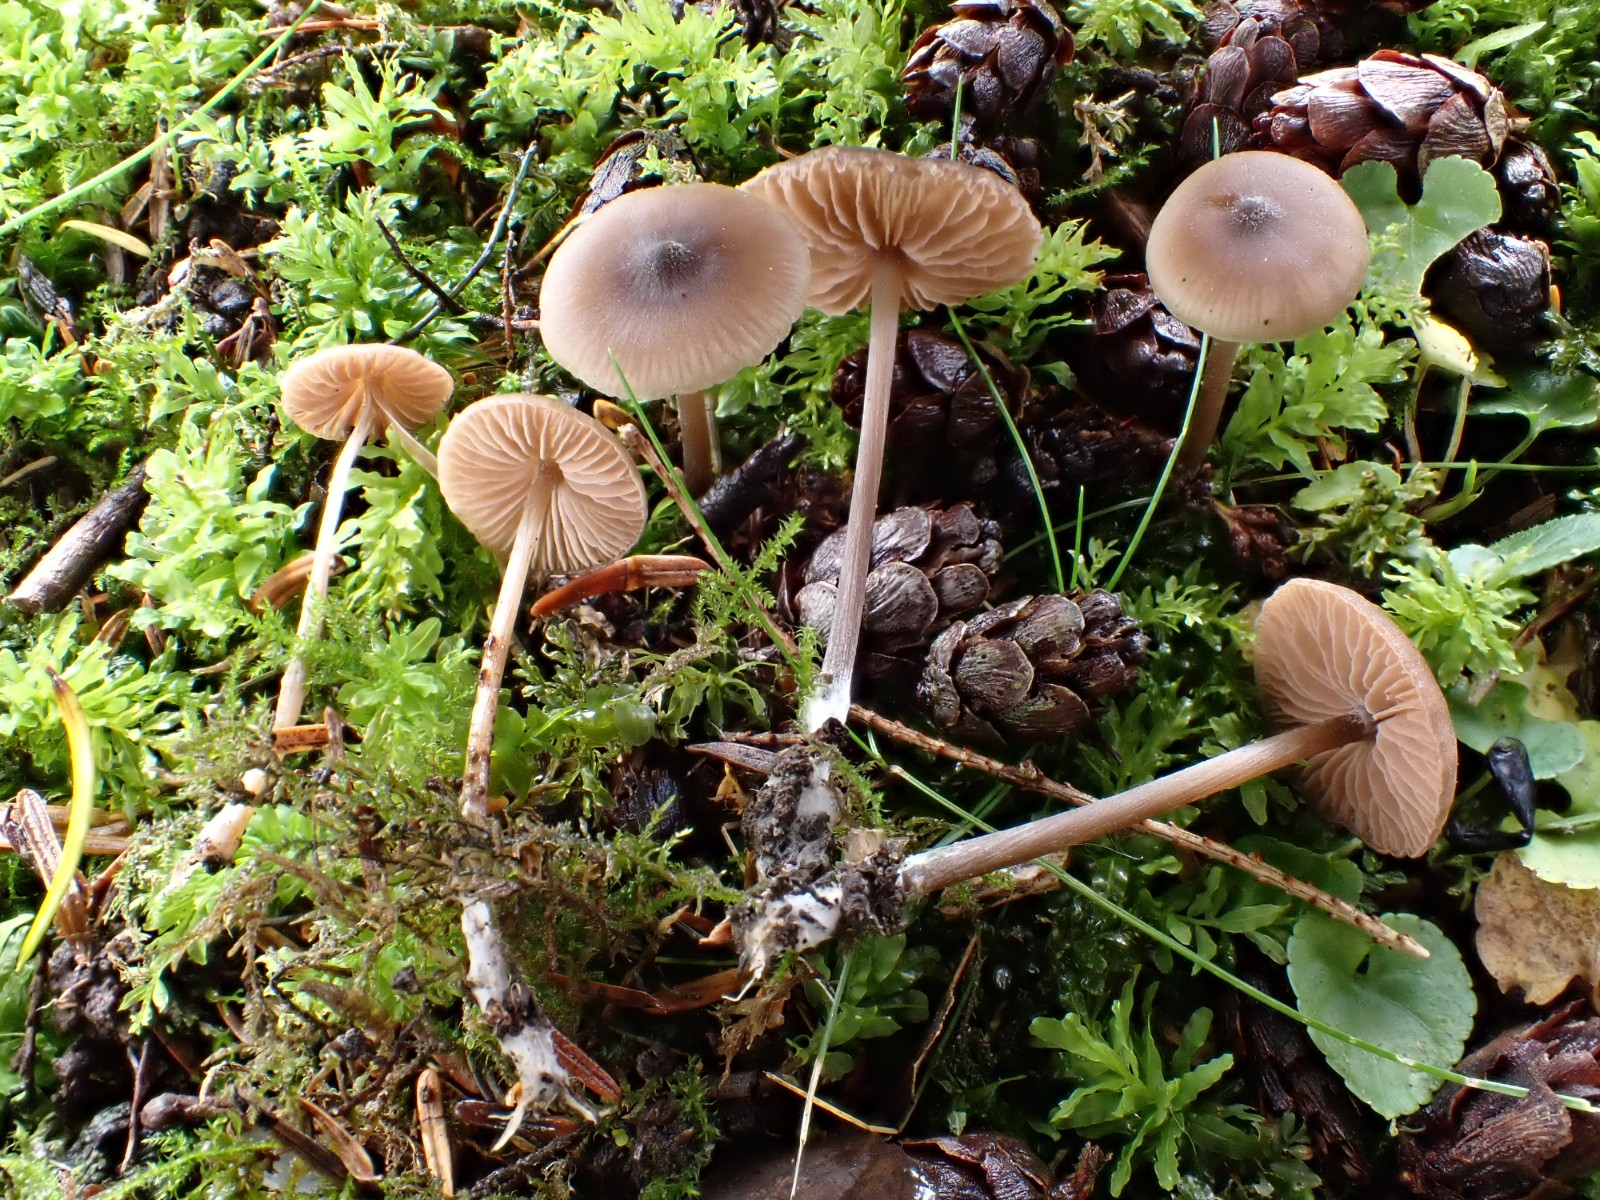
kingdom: Fungi
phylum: Basidiomycota
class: Agaricomycetes
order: Agaricales
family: Entolomataceae
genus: Entoloma
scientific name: Entoloma
